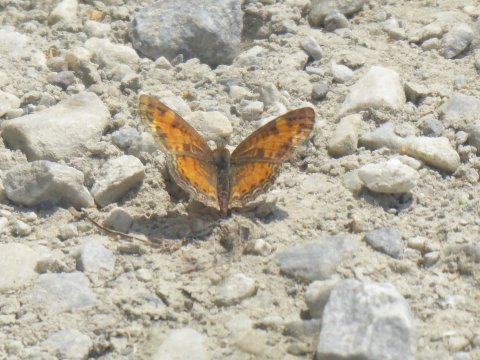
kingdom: Animalia
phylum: Arthropoda
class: Insecta
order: Lepidoptera
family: Nymphalidae
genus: Phyciodes
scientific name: Phyciodes
